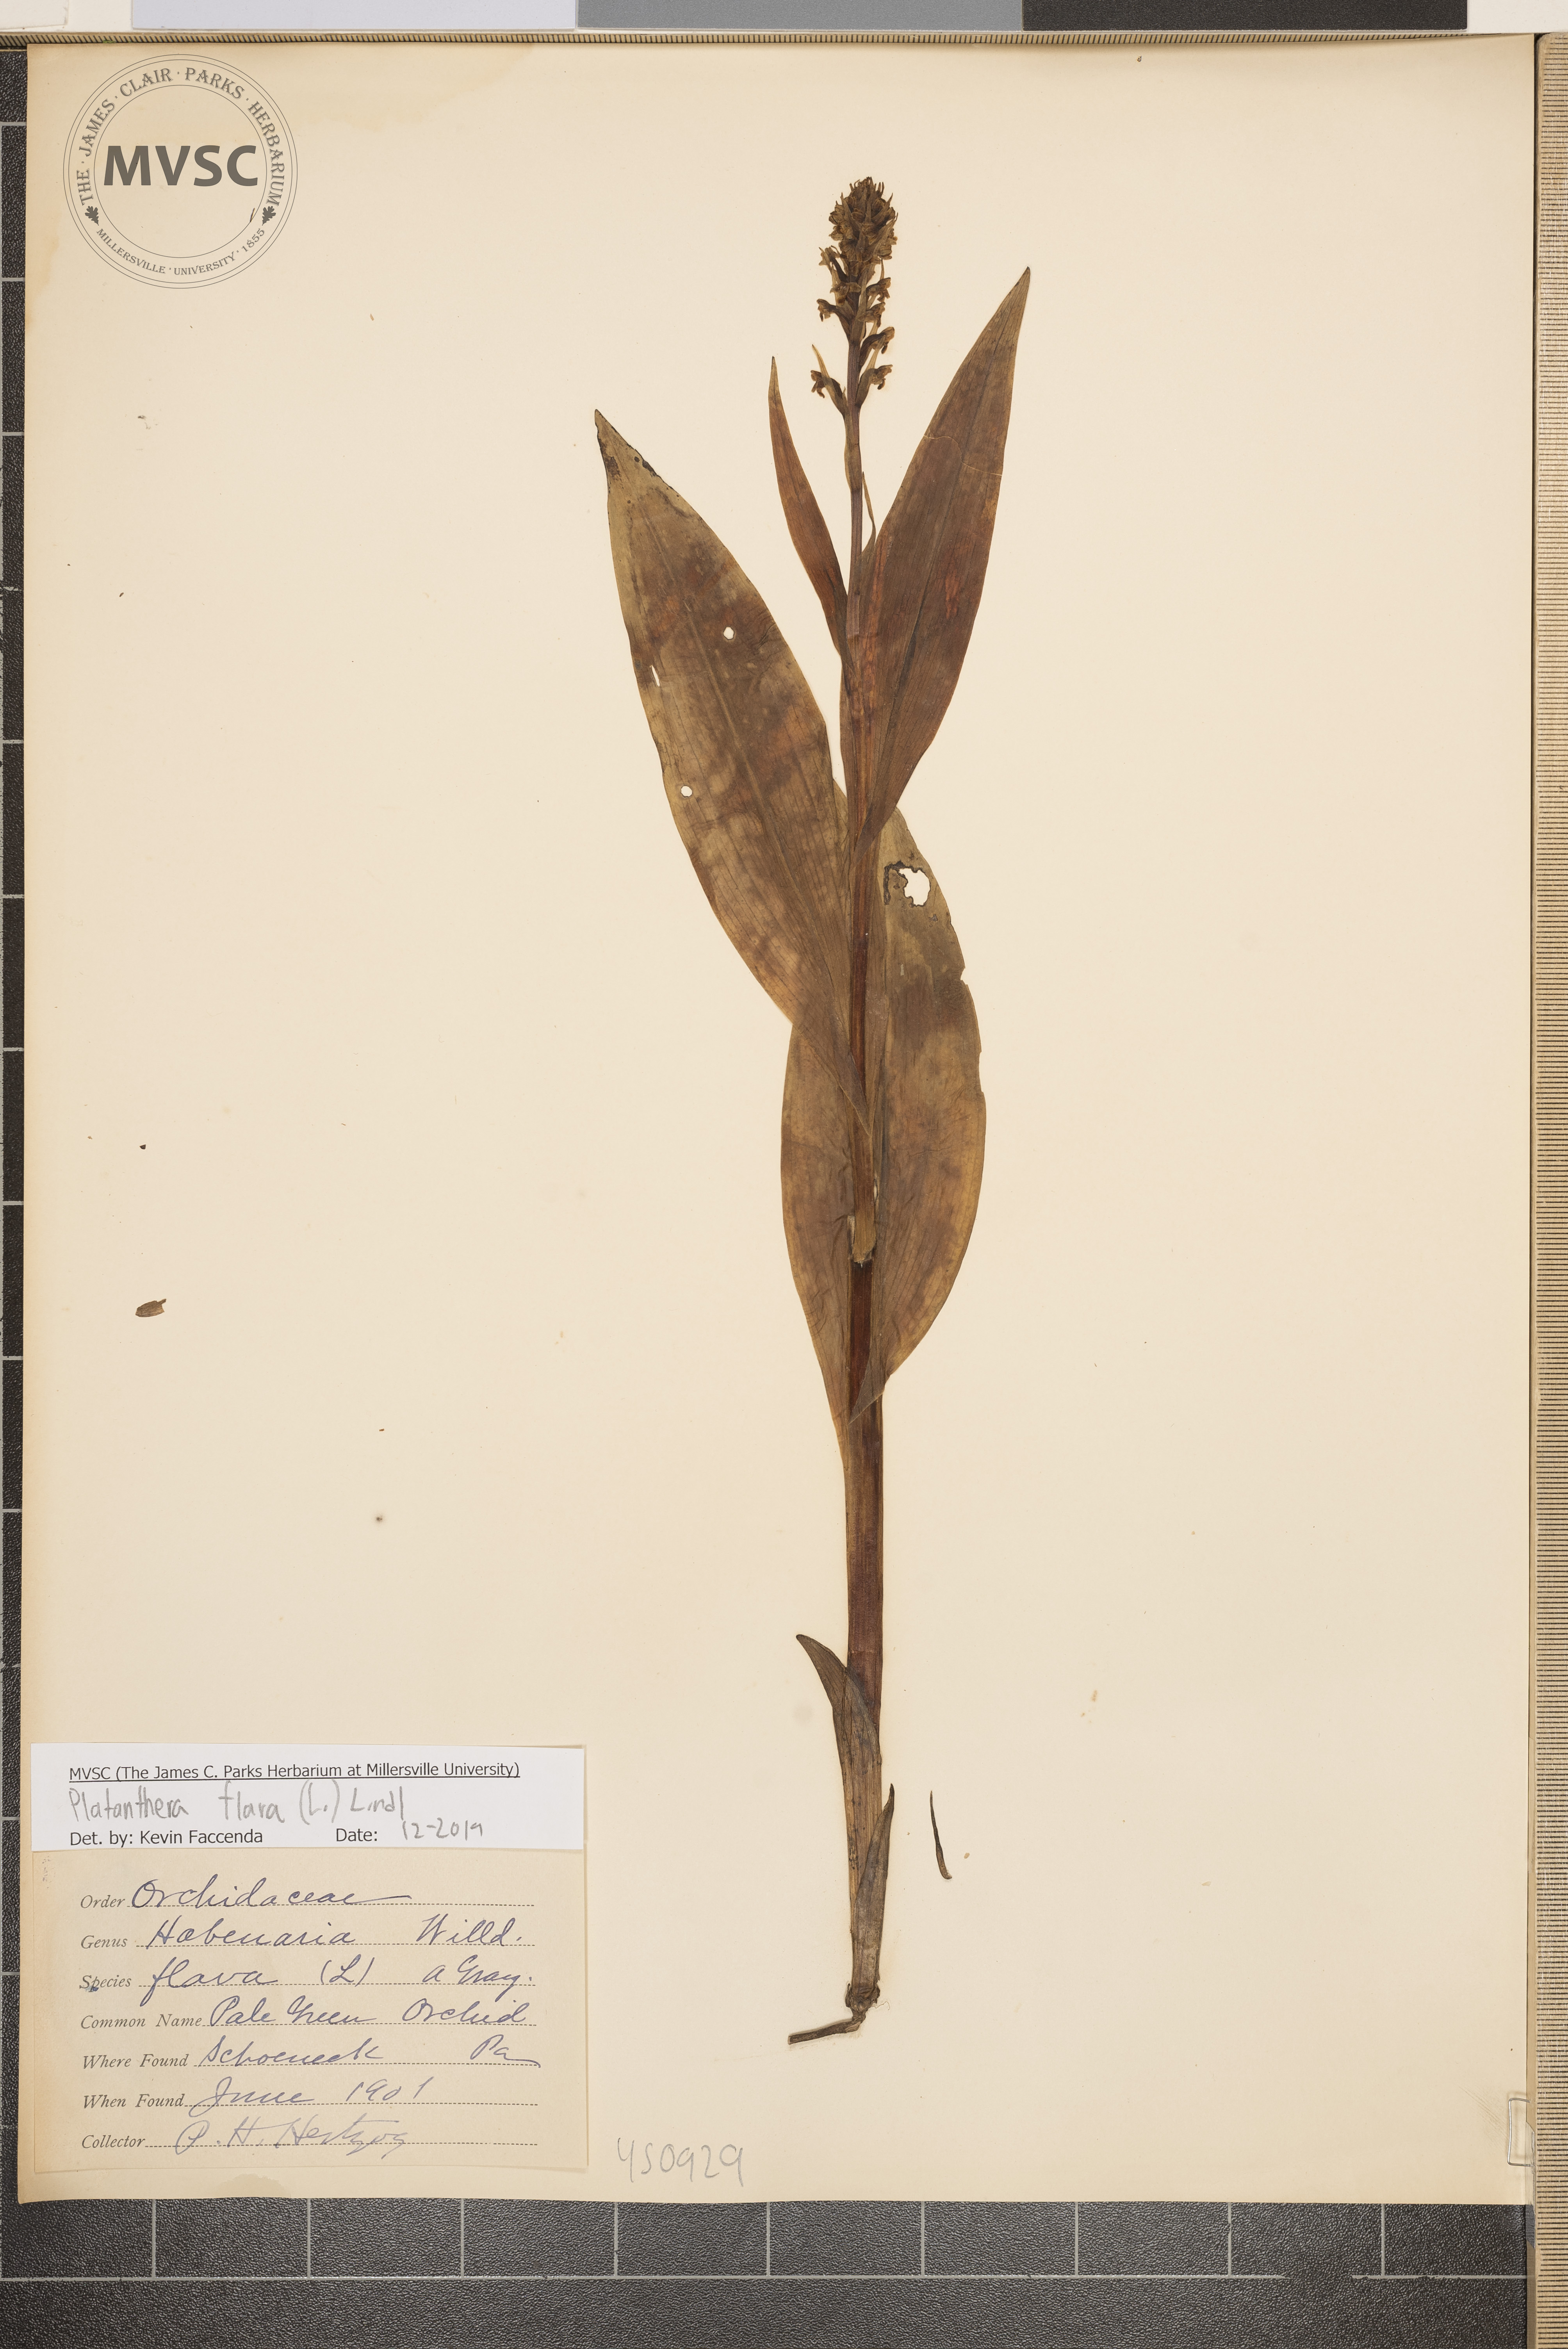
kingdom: Plantae
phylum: Tracheophyta
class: Liliopsida
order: Asparagales
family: Orchidaceae
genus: Platanthera
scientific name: Platanthera flava
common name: Gypsy-spikes
